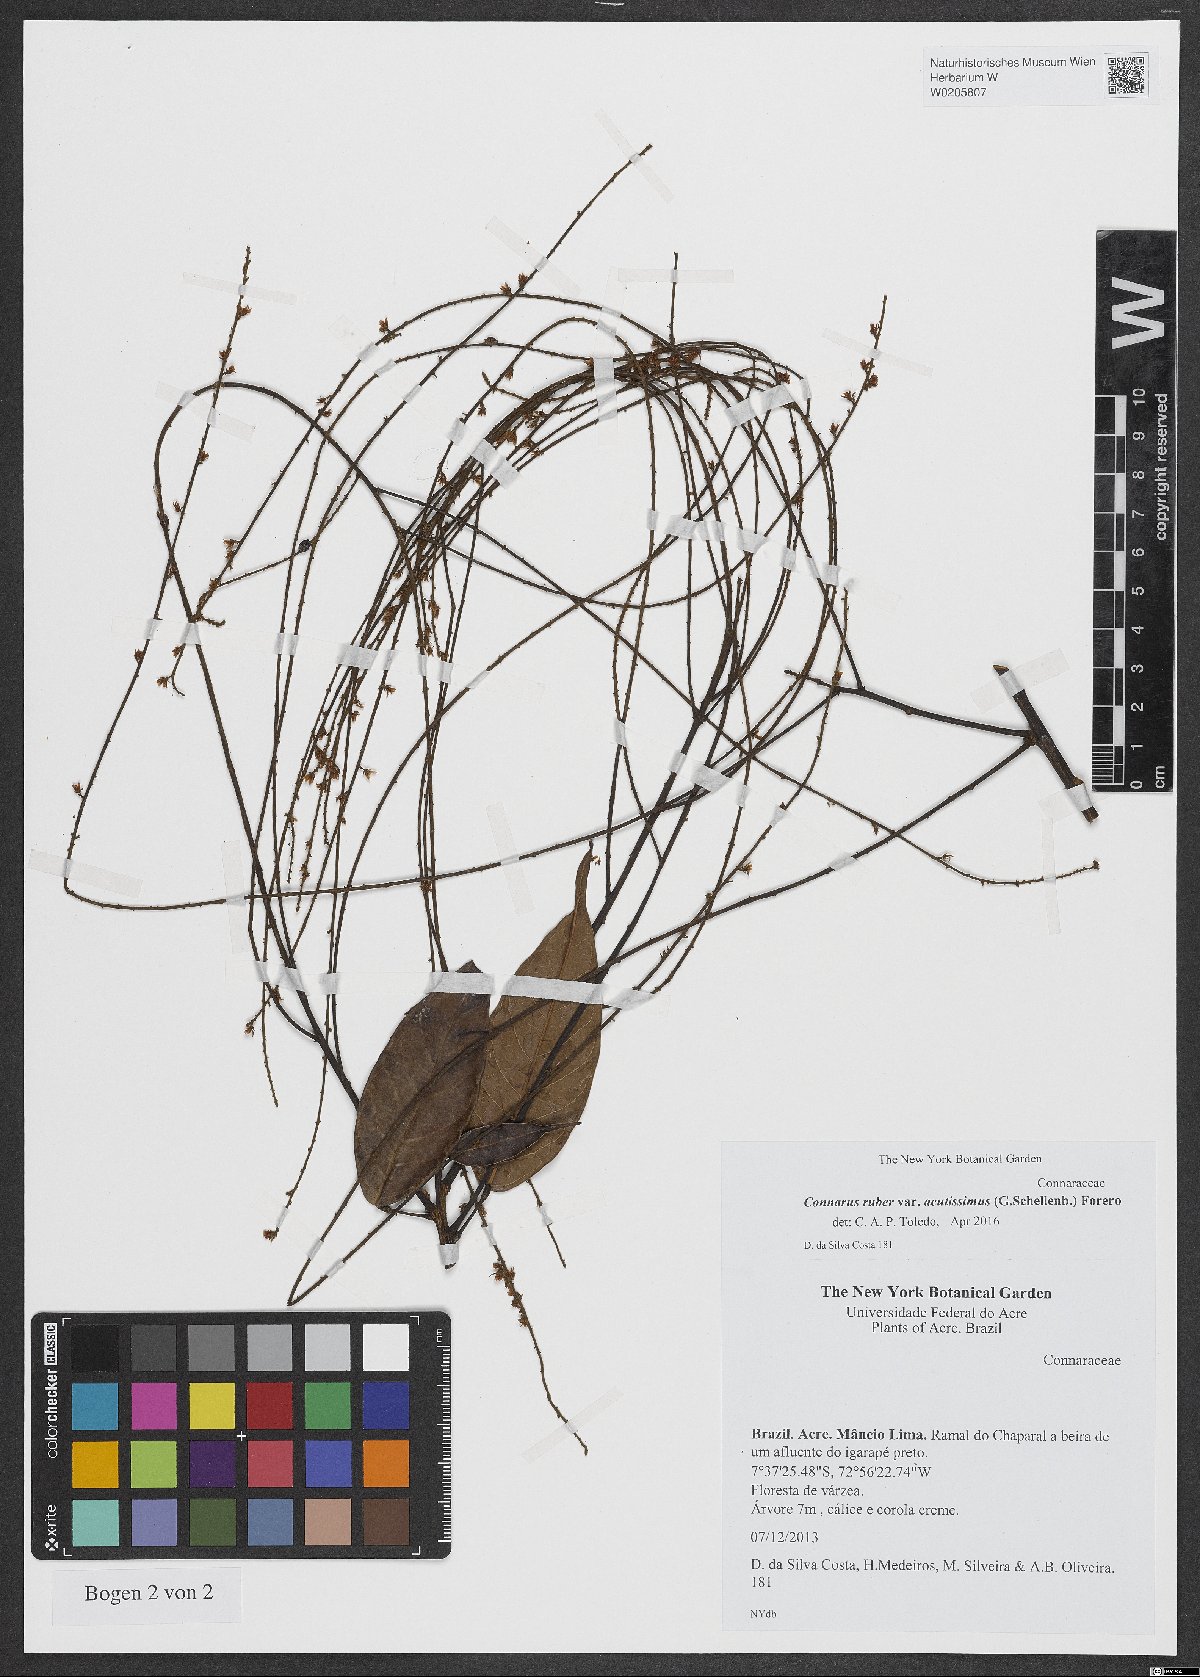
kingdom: Plantae
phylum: Tracheophyta
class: Magnoliopsida
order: Oxalidales
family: Connaraceae
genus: Connarus
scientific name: Connarus ruber
